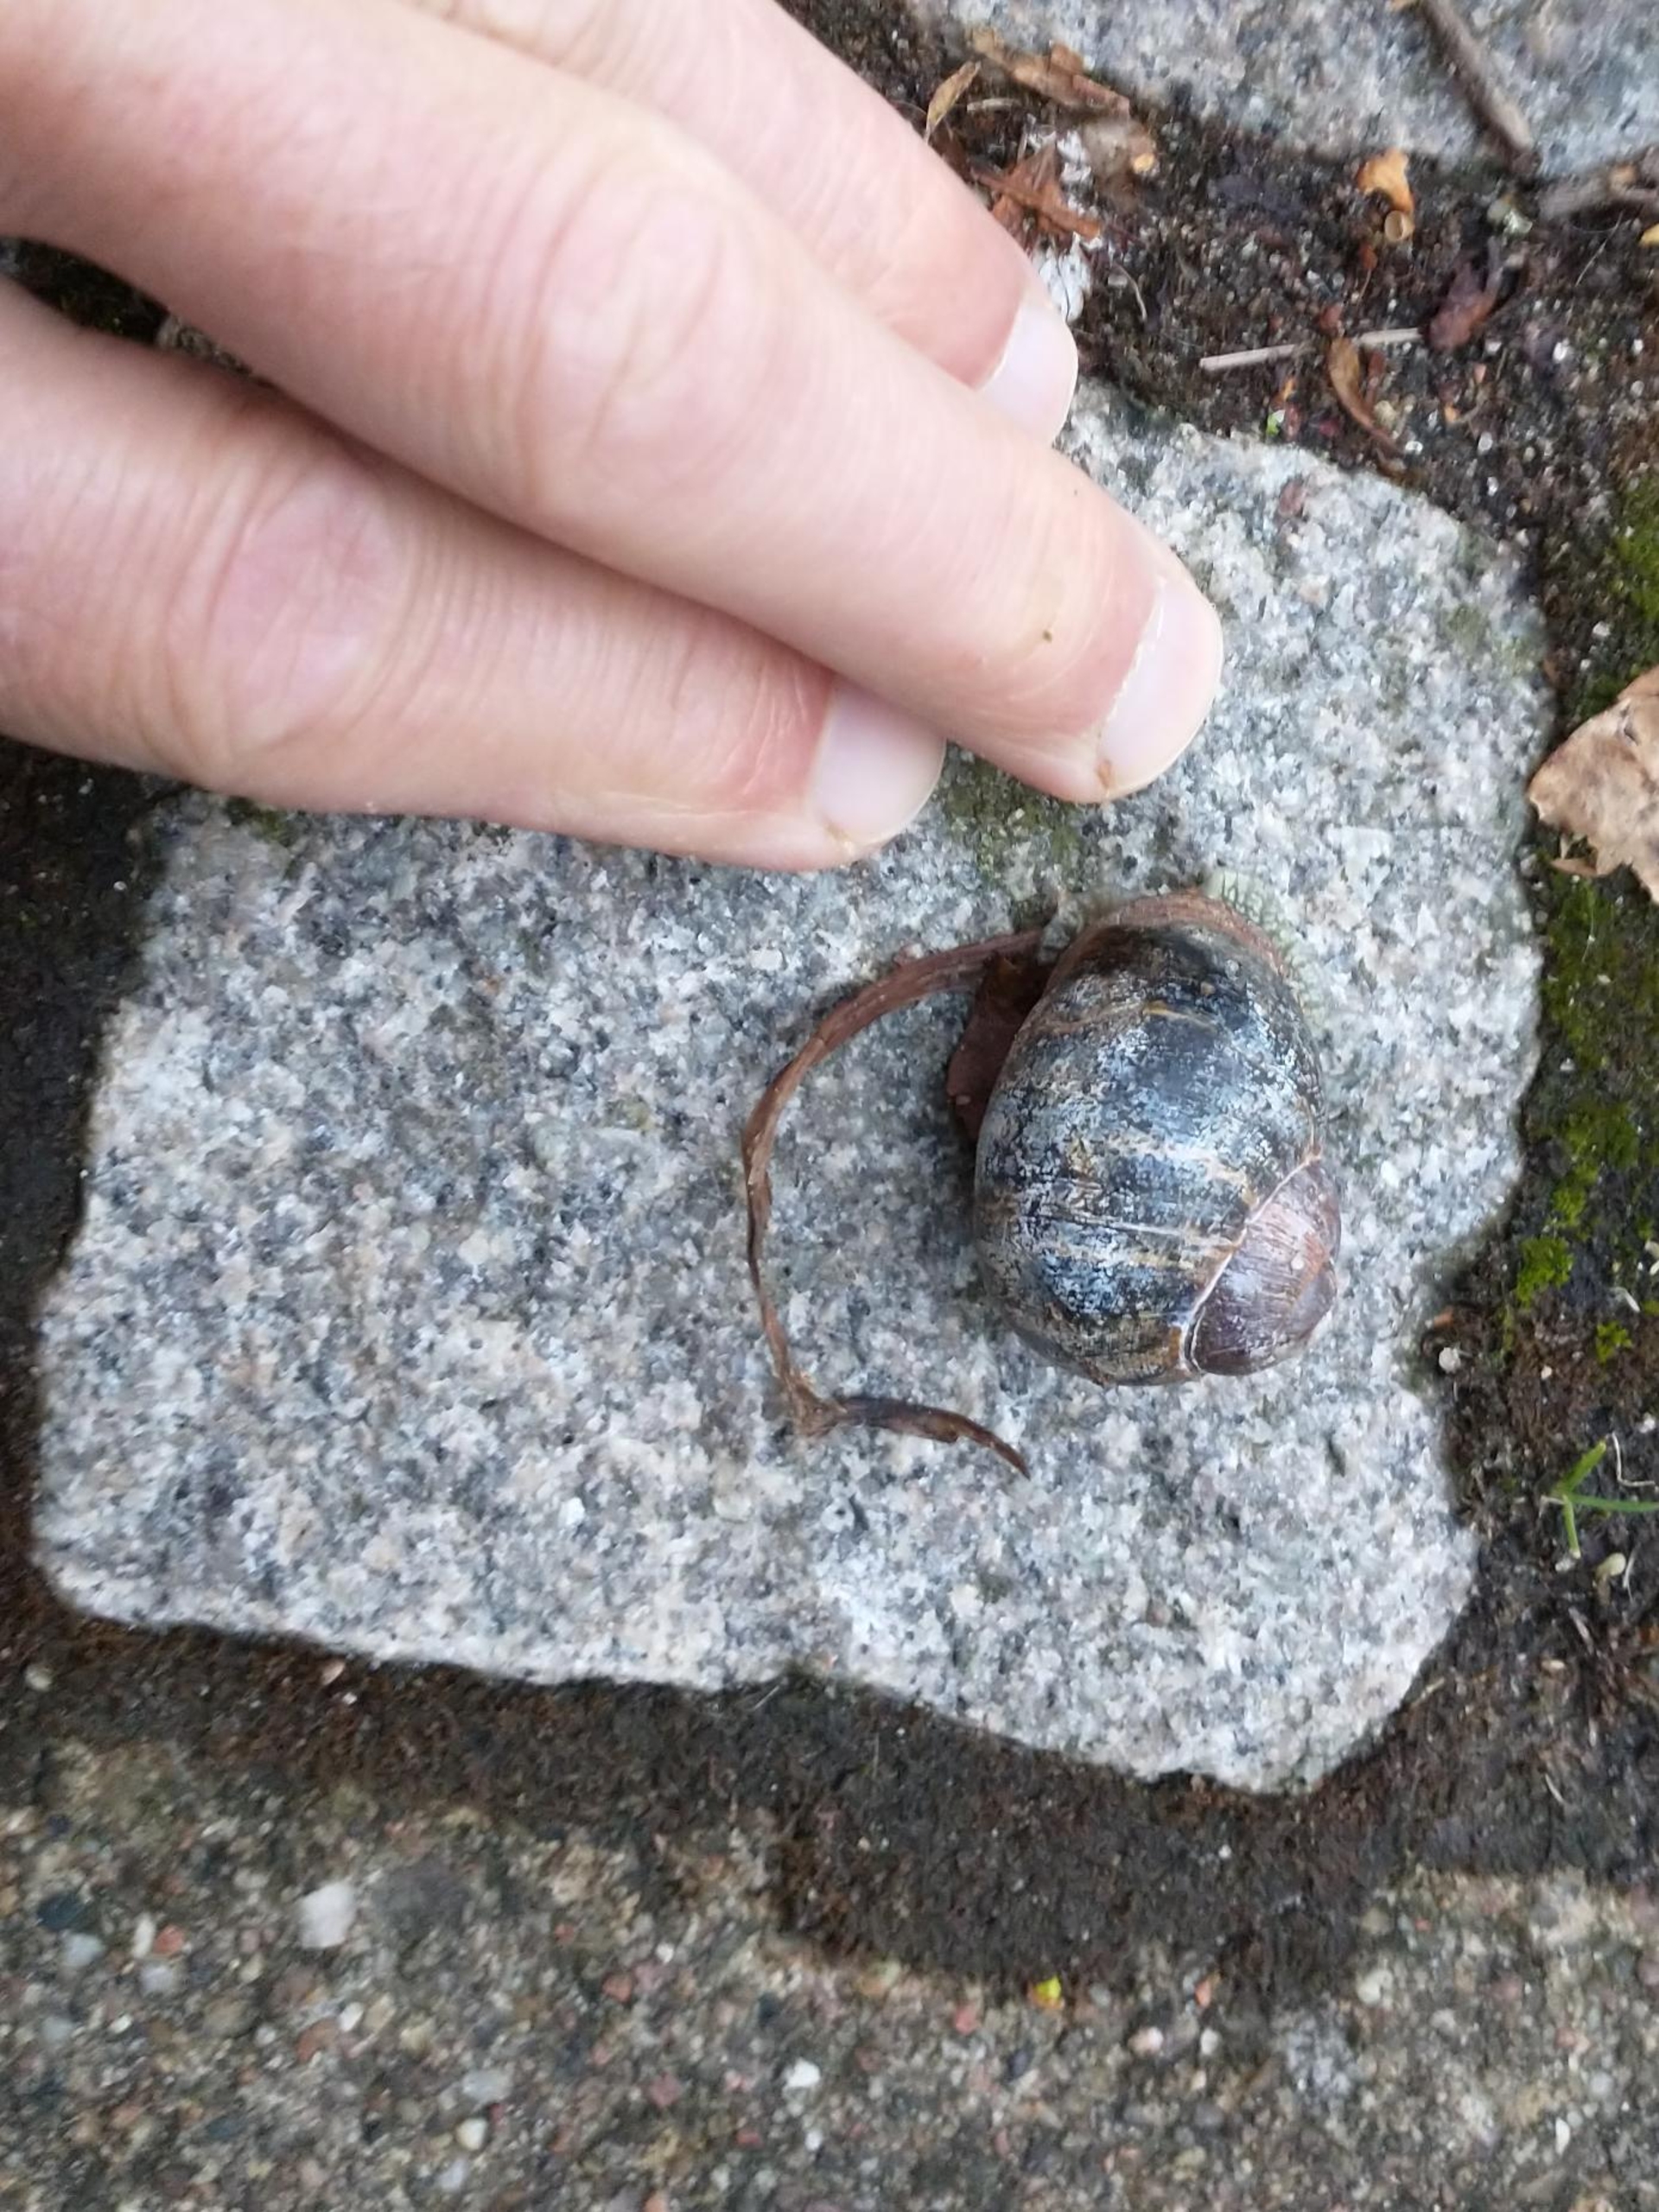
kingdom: Animalia
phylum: Mollusca
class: Gastropoda
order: Stylommatophora
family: Helicidae
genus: Cornu
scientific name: Cornu aspersum
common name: Plettet voldsnegl
